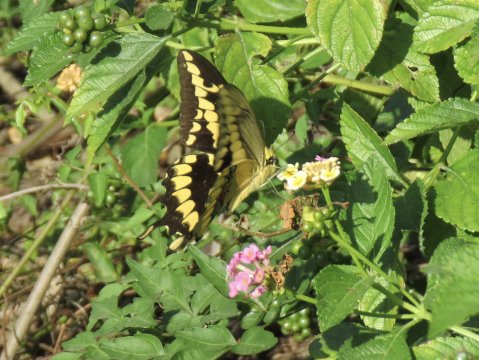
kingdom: Animalia
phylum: Arthropoda
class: Insecta
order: Lepidoptera
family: Papilionidae
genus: Papilio
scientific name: Papilio rumiko
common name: Western Giant Swallowtail
